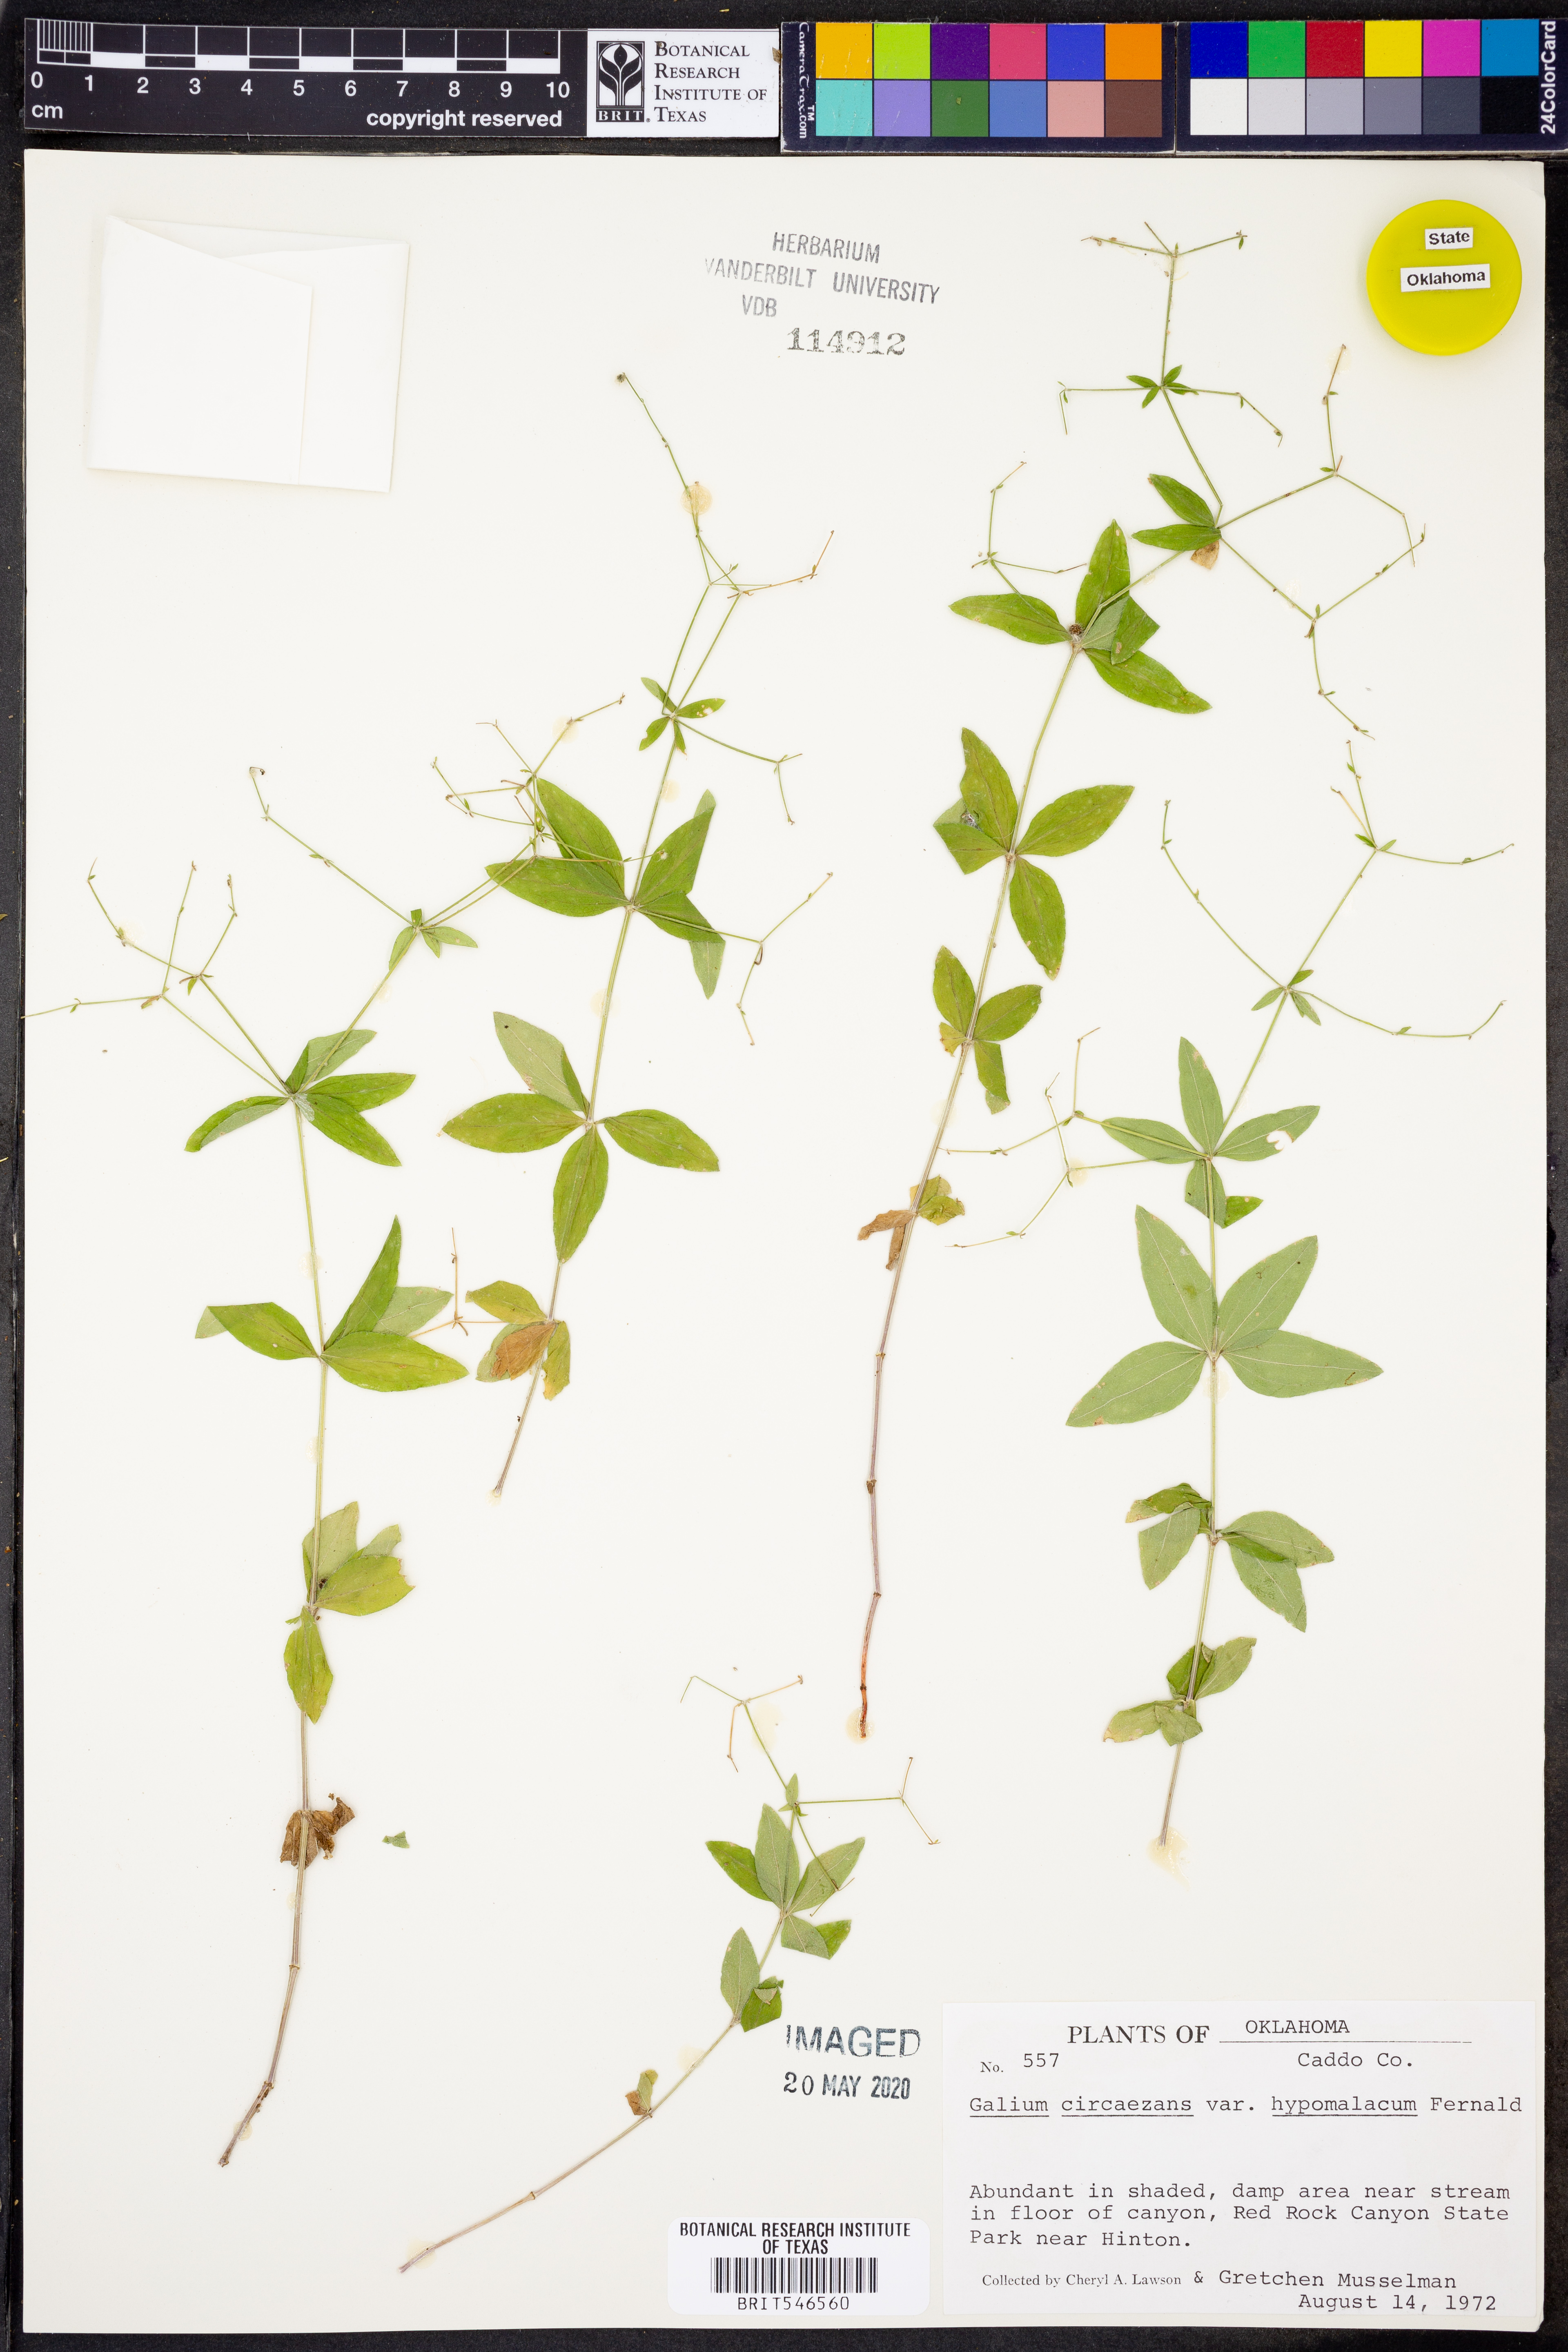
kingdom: Plantae
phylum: Tracheophyta
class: Magnoliopsida
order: Gentianales
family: Rubiaceae
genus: Galium
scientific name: Galium circaezans
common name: Forest bedstraw
